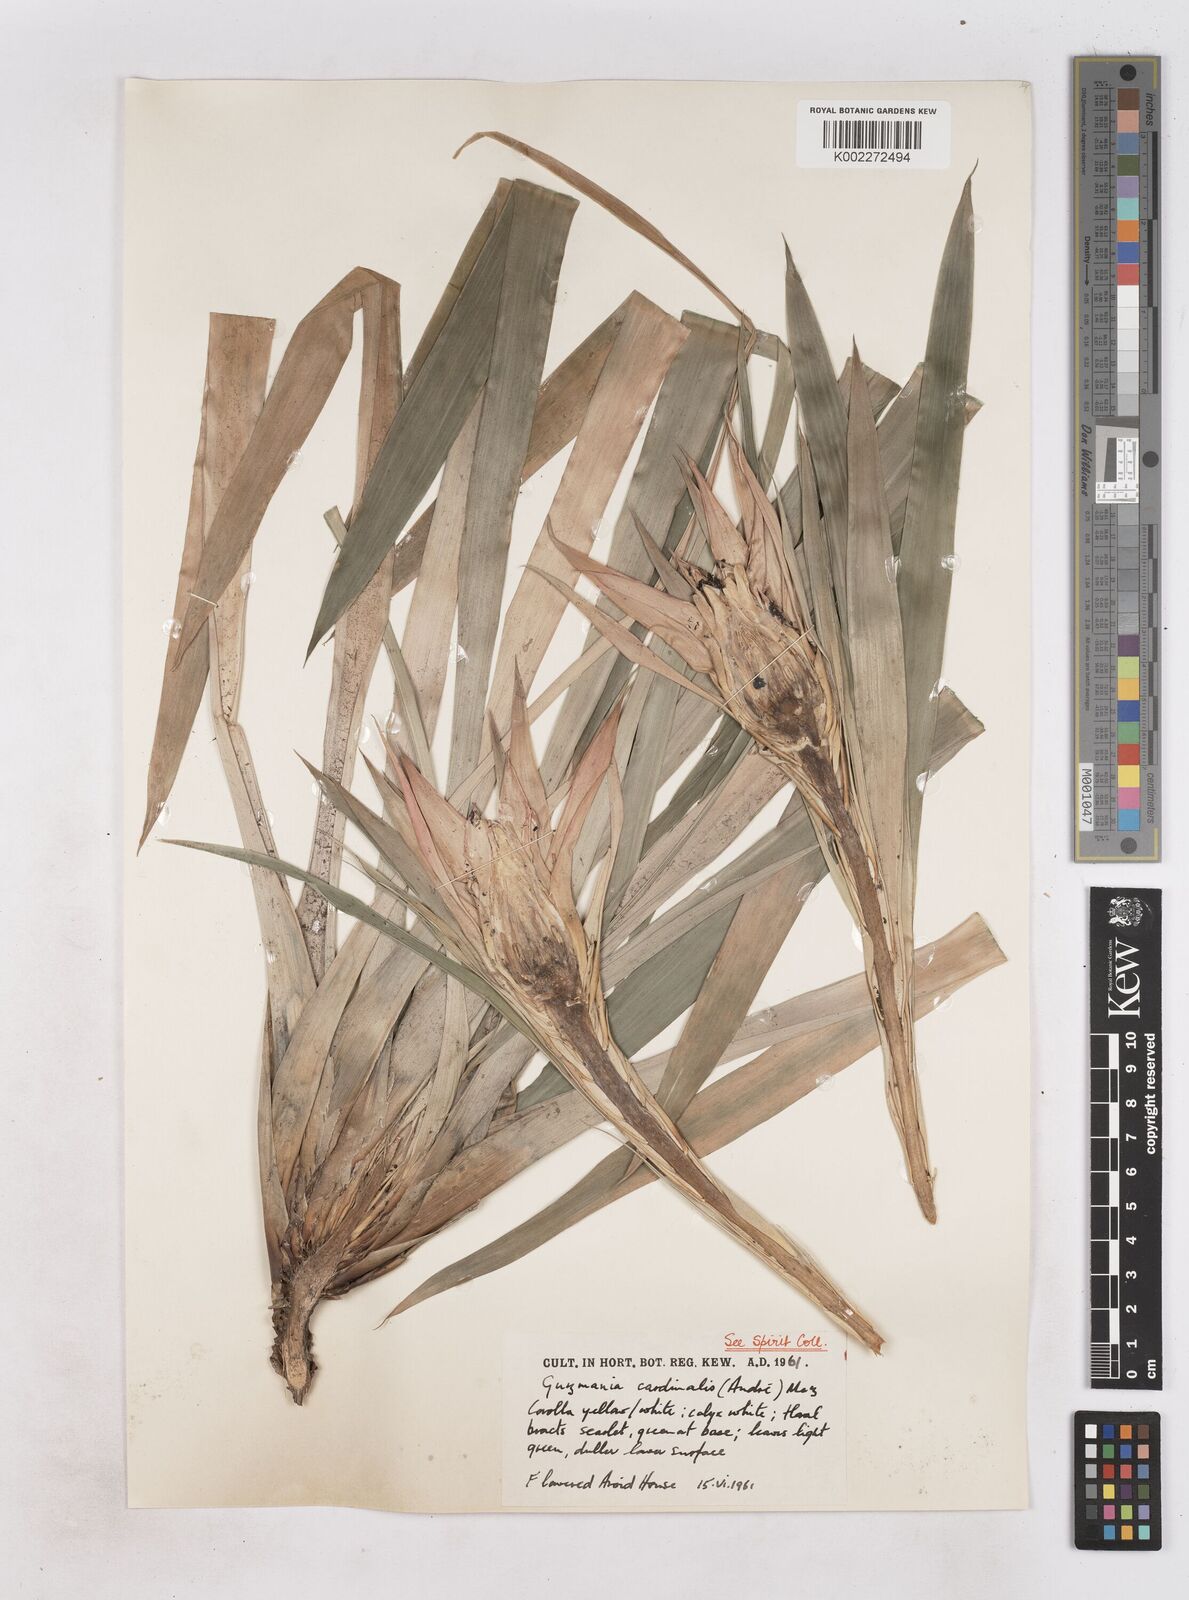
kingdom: Plantae
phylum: Tracheophyta
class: Liliopsida
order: Poales
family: Bromeliaceae
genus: Guzmania
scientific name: Guzmania lingulata
